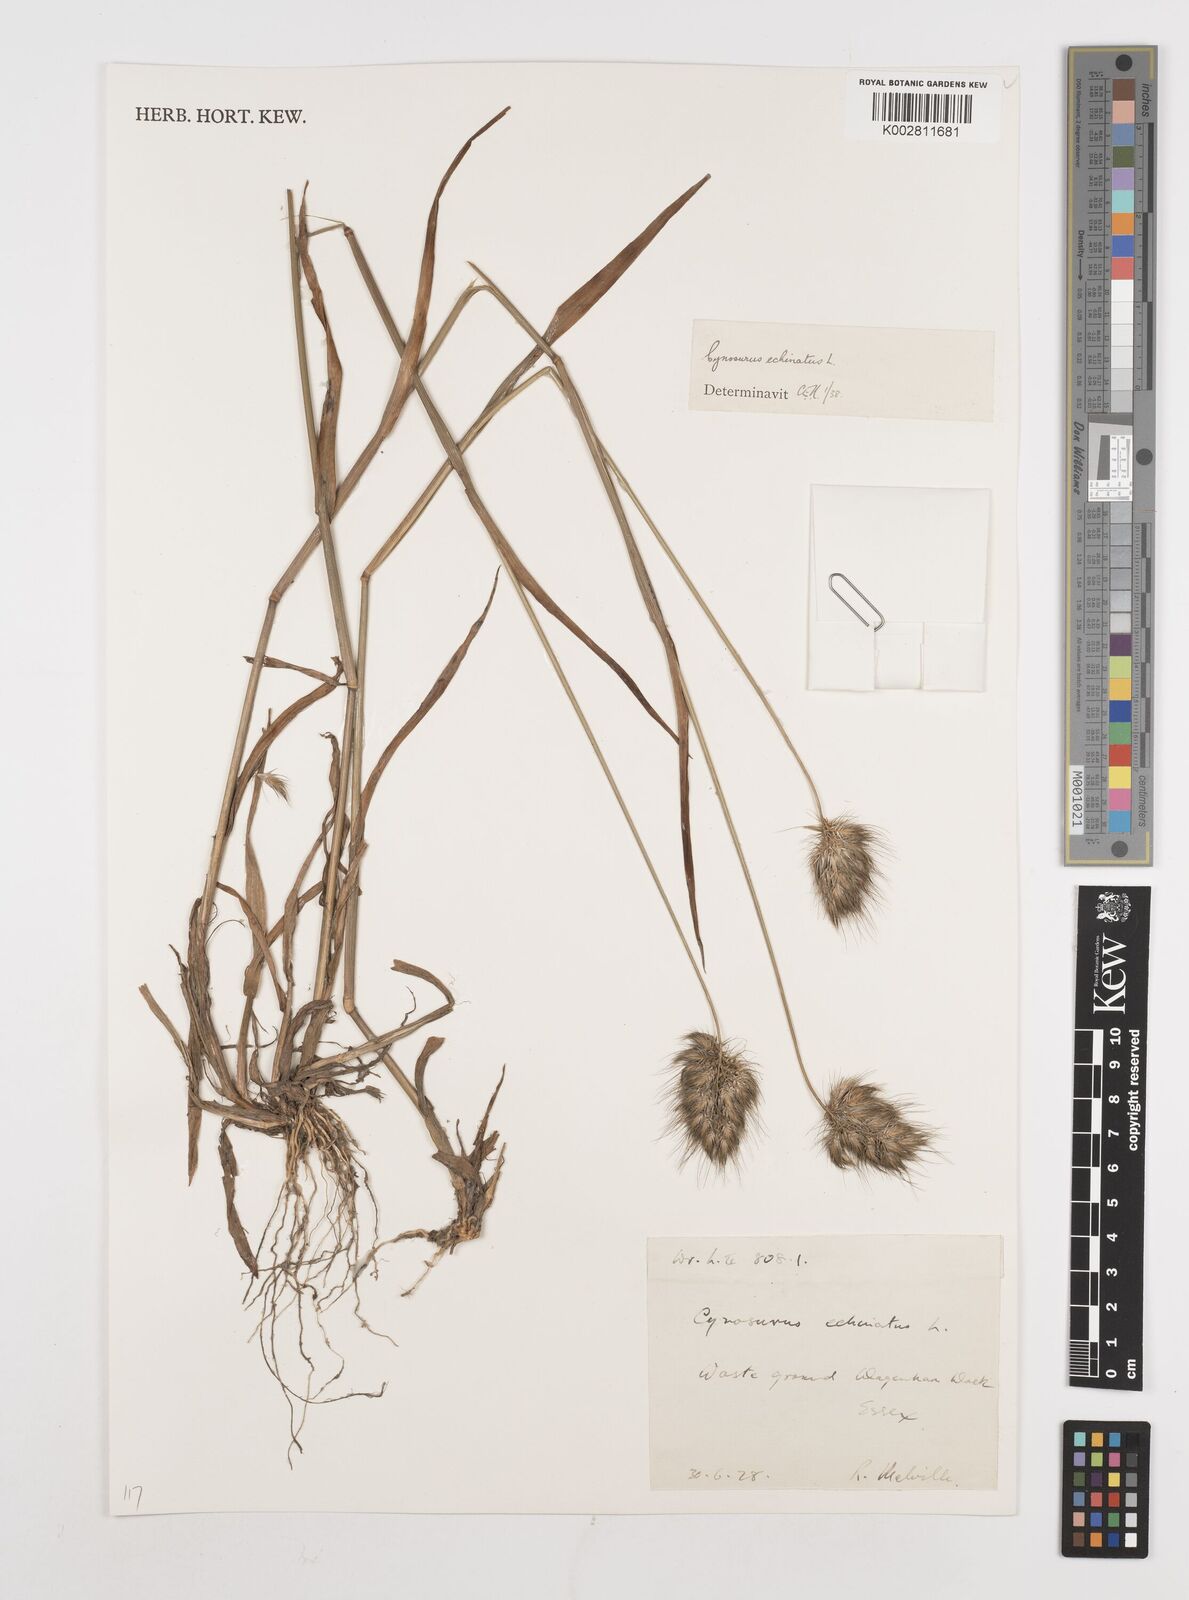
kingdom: Plantae
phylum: Tracheophyta
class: Liliopsida
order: Poales
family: Poaceae
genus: Cynosurus
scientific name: Cynosurus echinatus
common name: Rough dog's-tail
